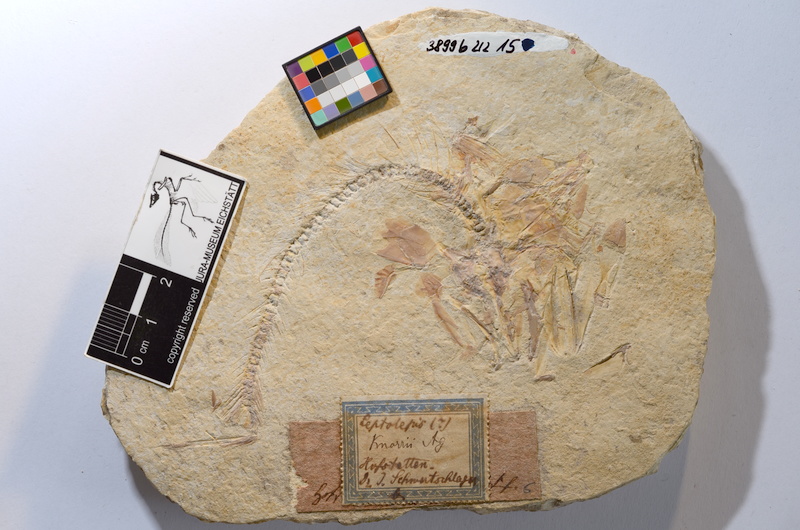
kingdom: Animalia
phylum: Chordata
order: Elopiformes
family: Anaethalionidae
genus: Anaethalion
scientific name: Anaethalion knorri
